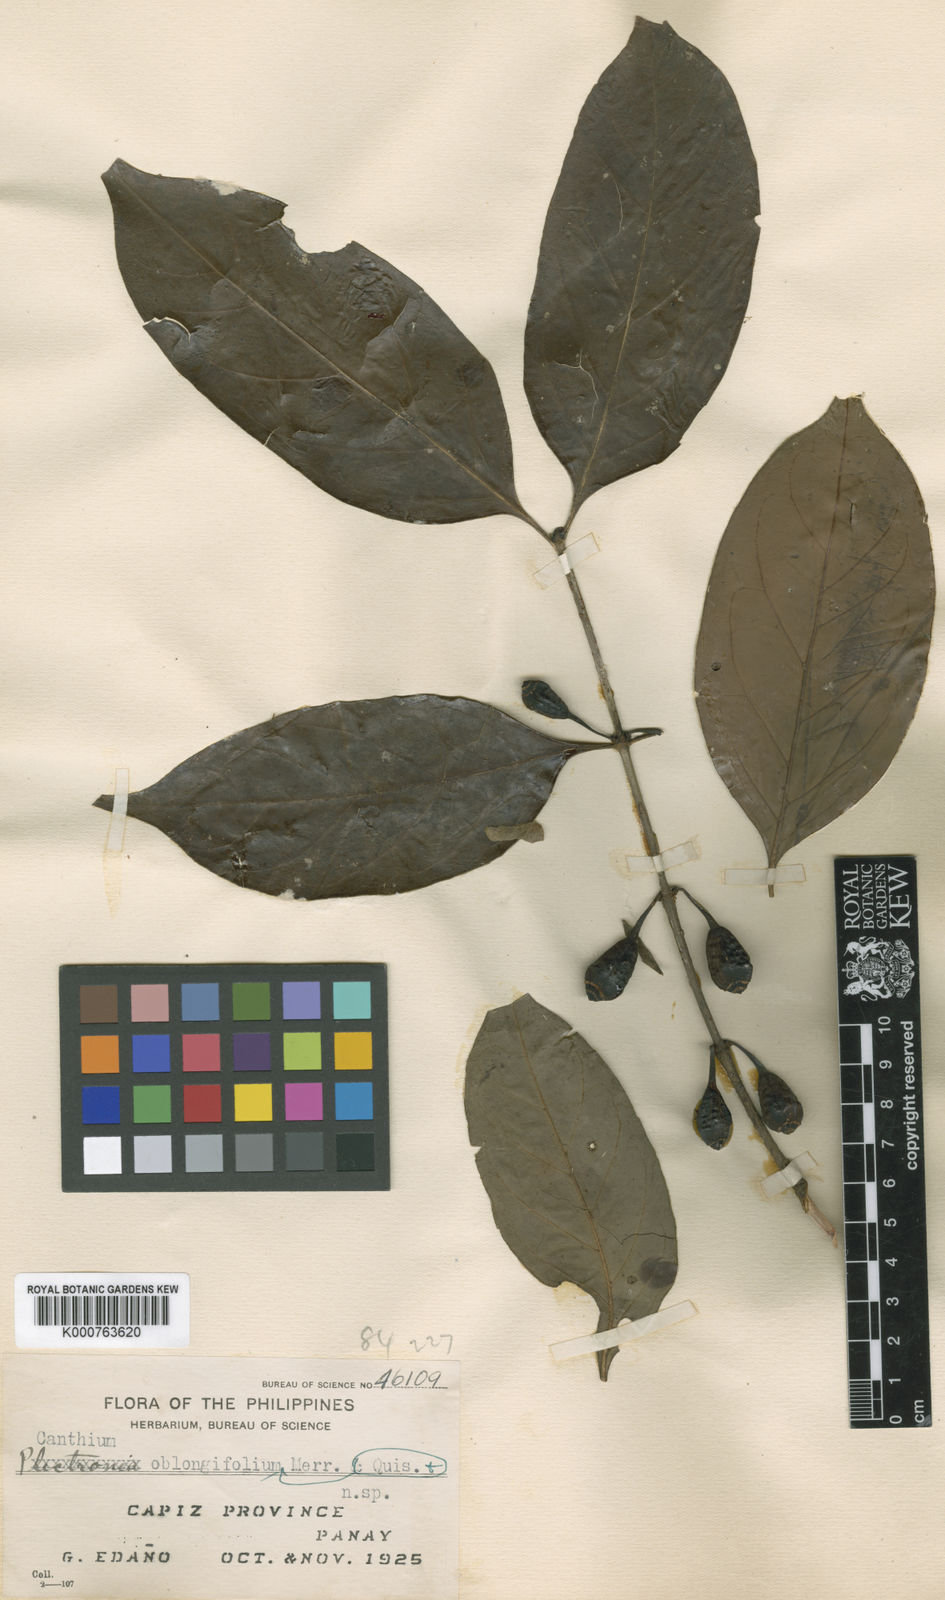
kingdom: Plantae
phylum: Tracheophyta
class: Magnoliopsida
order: Gentianales
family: Rubiaceae
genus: Dibridsonia
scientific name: Dibridsonia oblongifolia
